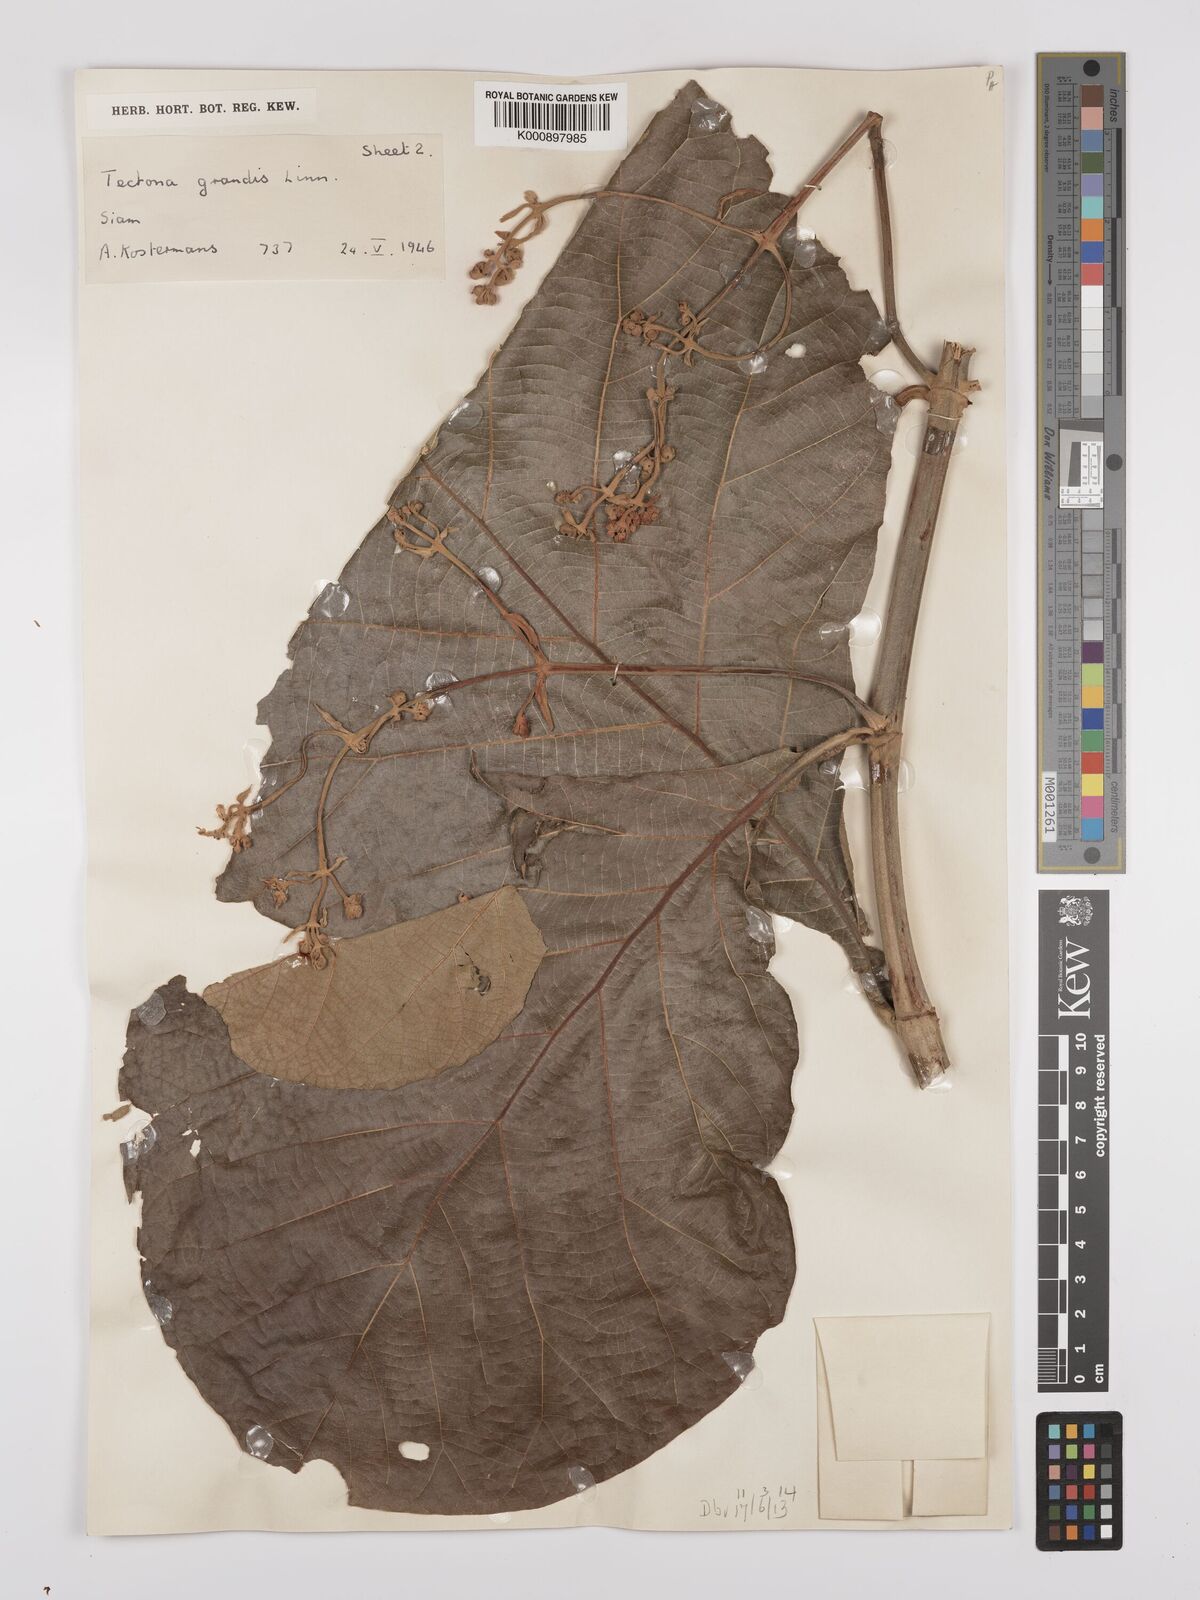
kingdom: Plantae
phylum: Tracheophyta
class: Magnoliopsida
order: Lamiales
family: Lamiaceae
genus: Tectona
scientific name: Tectona grandis
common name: Teak
